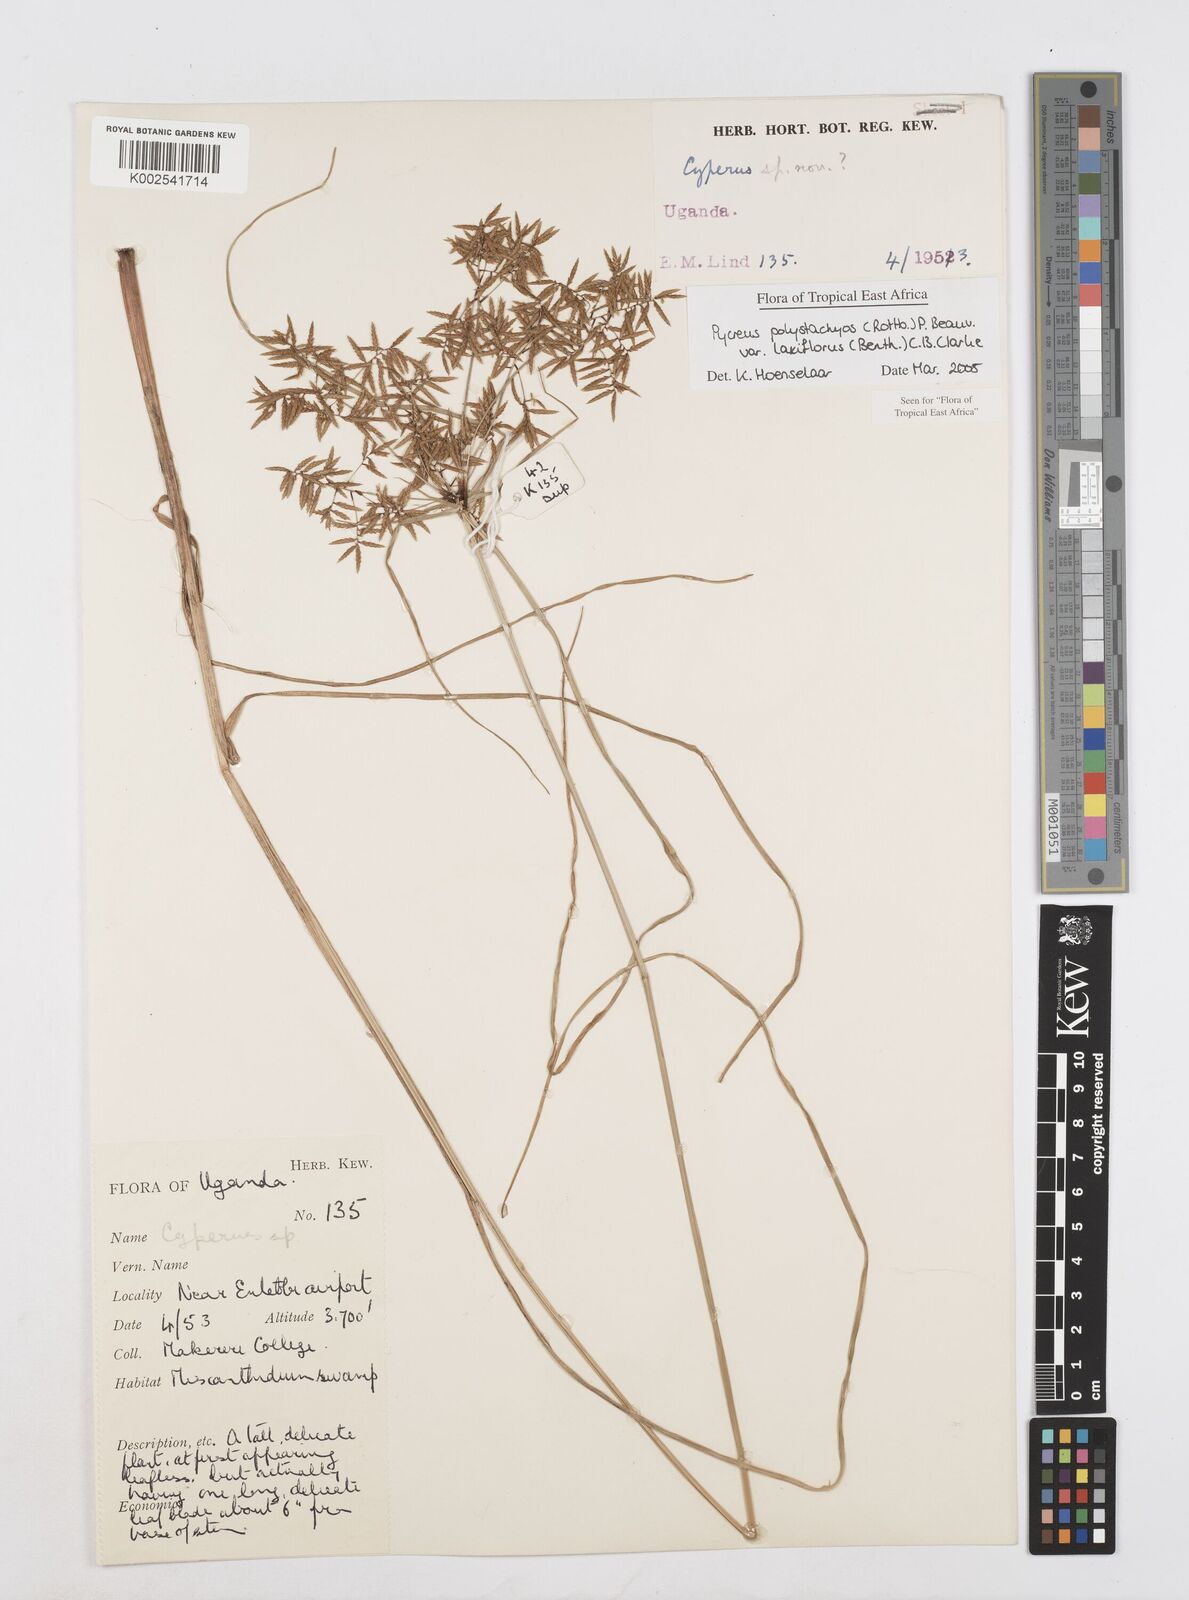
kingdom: Plantae
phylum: Tracheophyta
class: Liliopsida
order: Poales
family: Cyperaceae
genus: Cyperus
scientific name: Cyperus polystachyos
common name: Bunchy flat sedge
